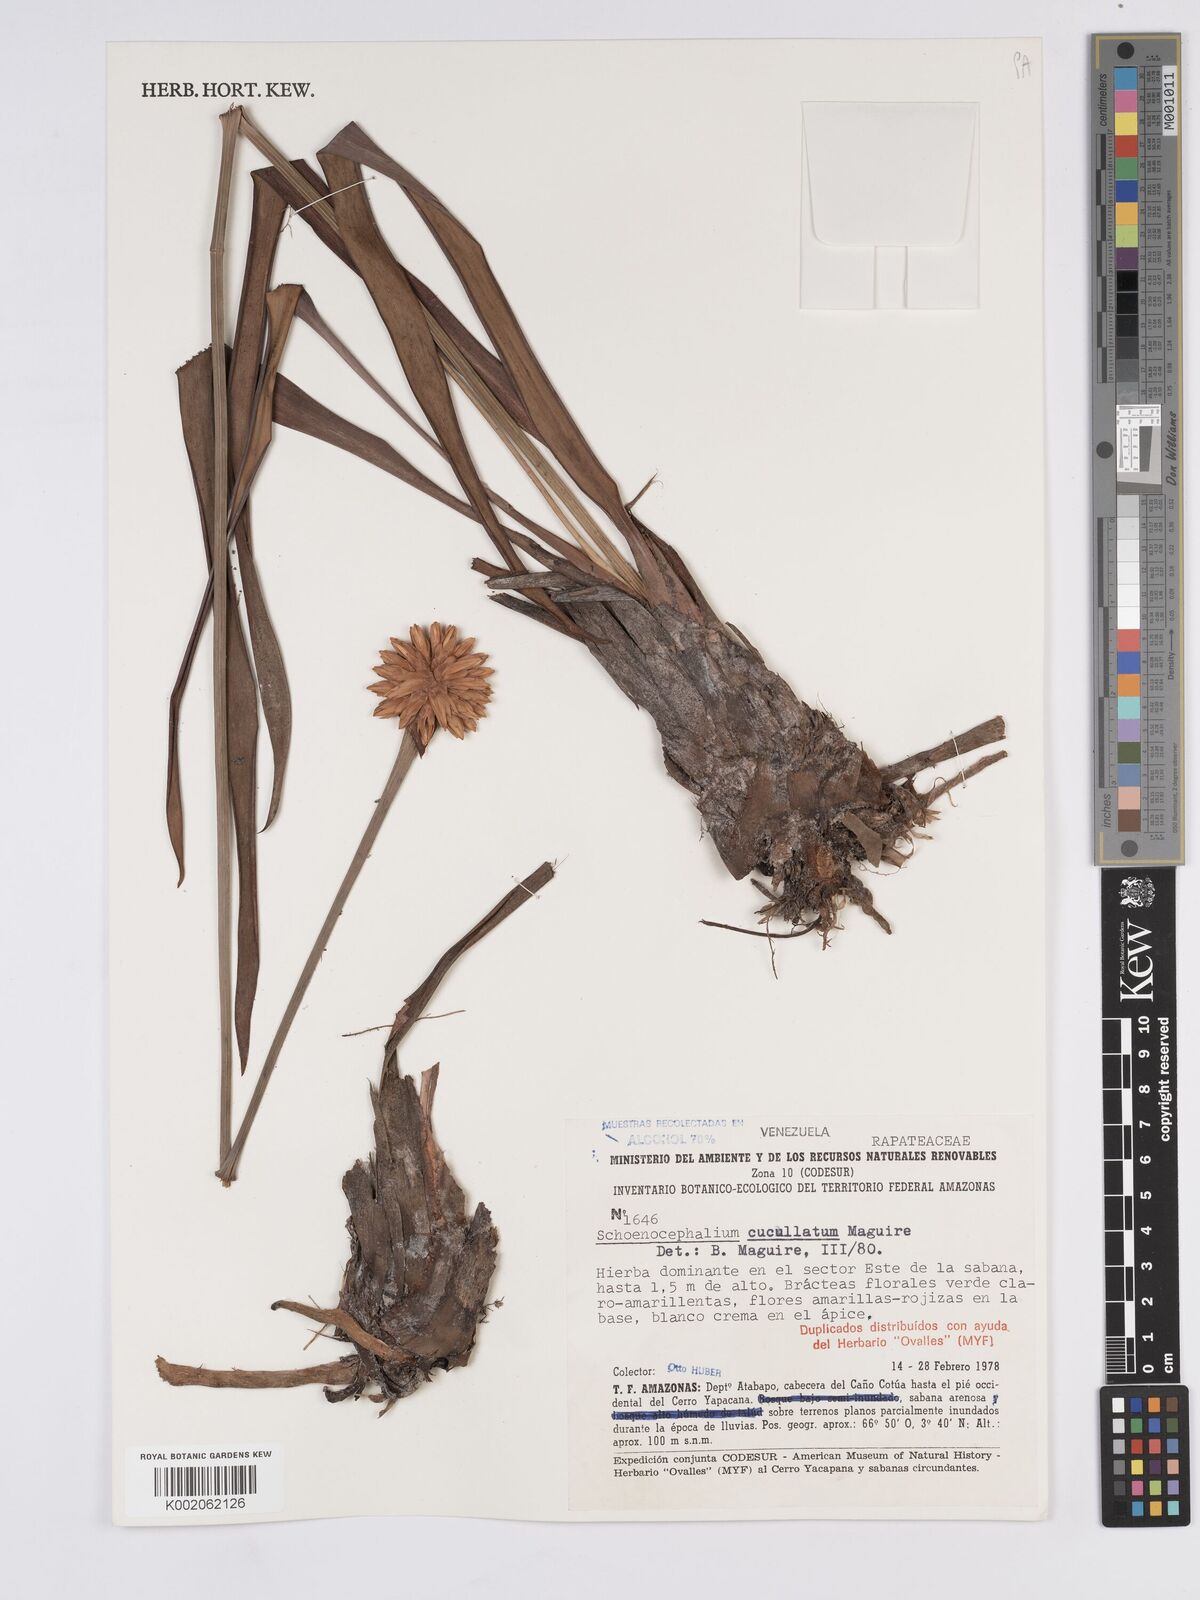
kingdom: Plantae
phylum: Tracheophyta
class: Liliopsida
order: Poales
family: Rapateaceae
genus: Schoenocephalium
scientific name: Schoenocephalium cucullatum
